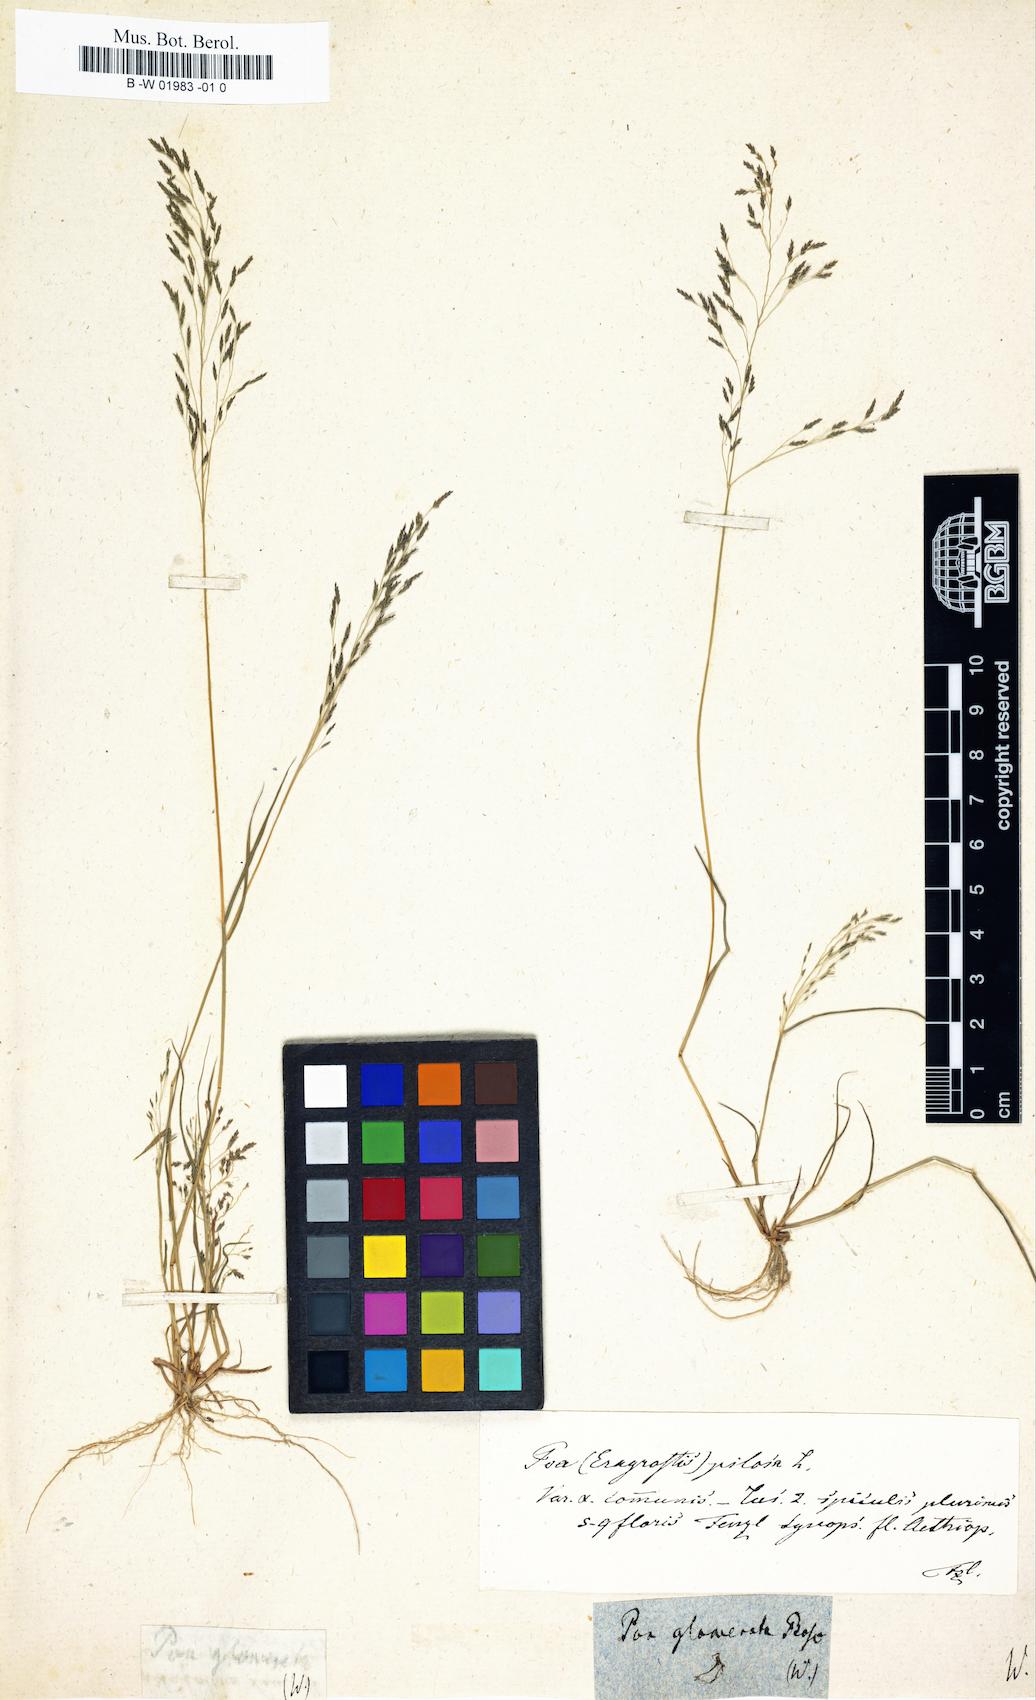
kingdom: Plantae
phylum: Tracheophyta
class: Liliopsida
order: Poales
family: Poaceae
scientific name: Poaceae
